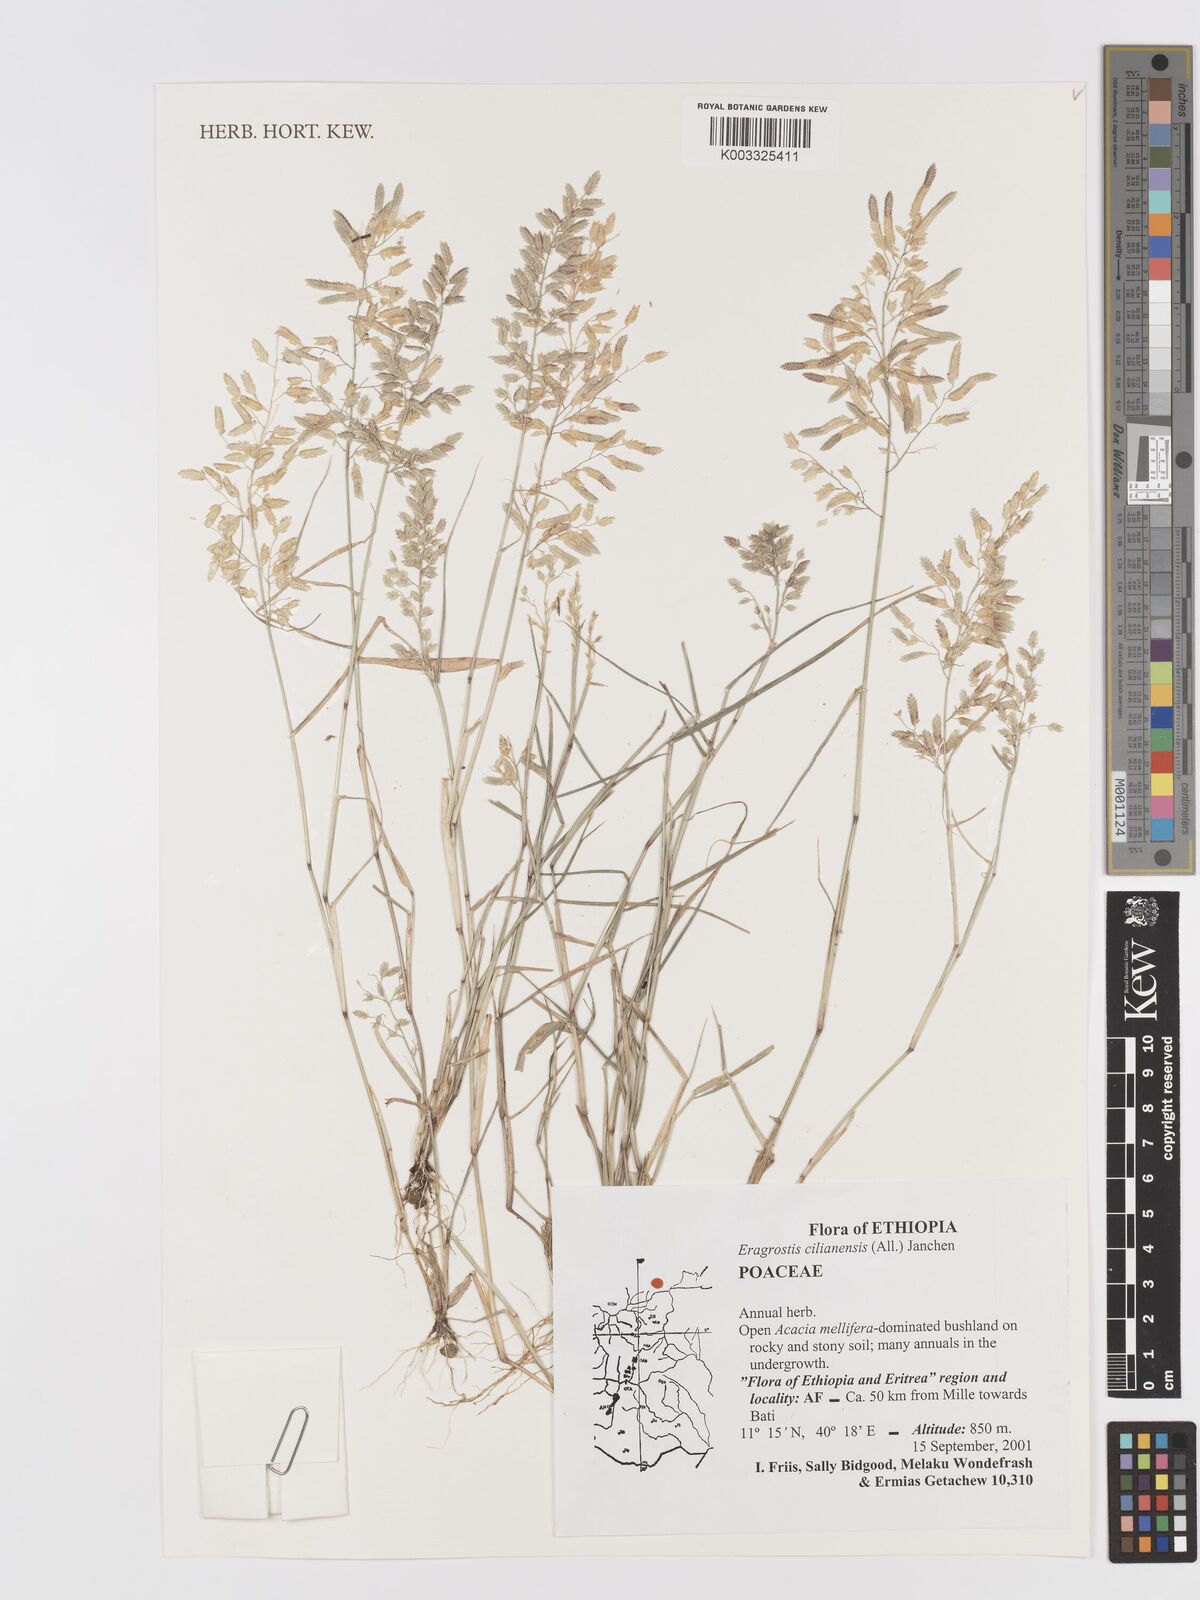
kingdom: Plantae
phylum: Tracheophyta
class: Liliopsida
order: Poales
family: Poaceae
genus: Eragrostis
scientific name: Eragrostis cilianensis
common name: Stinkgrass
